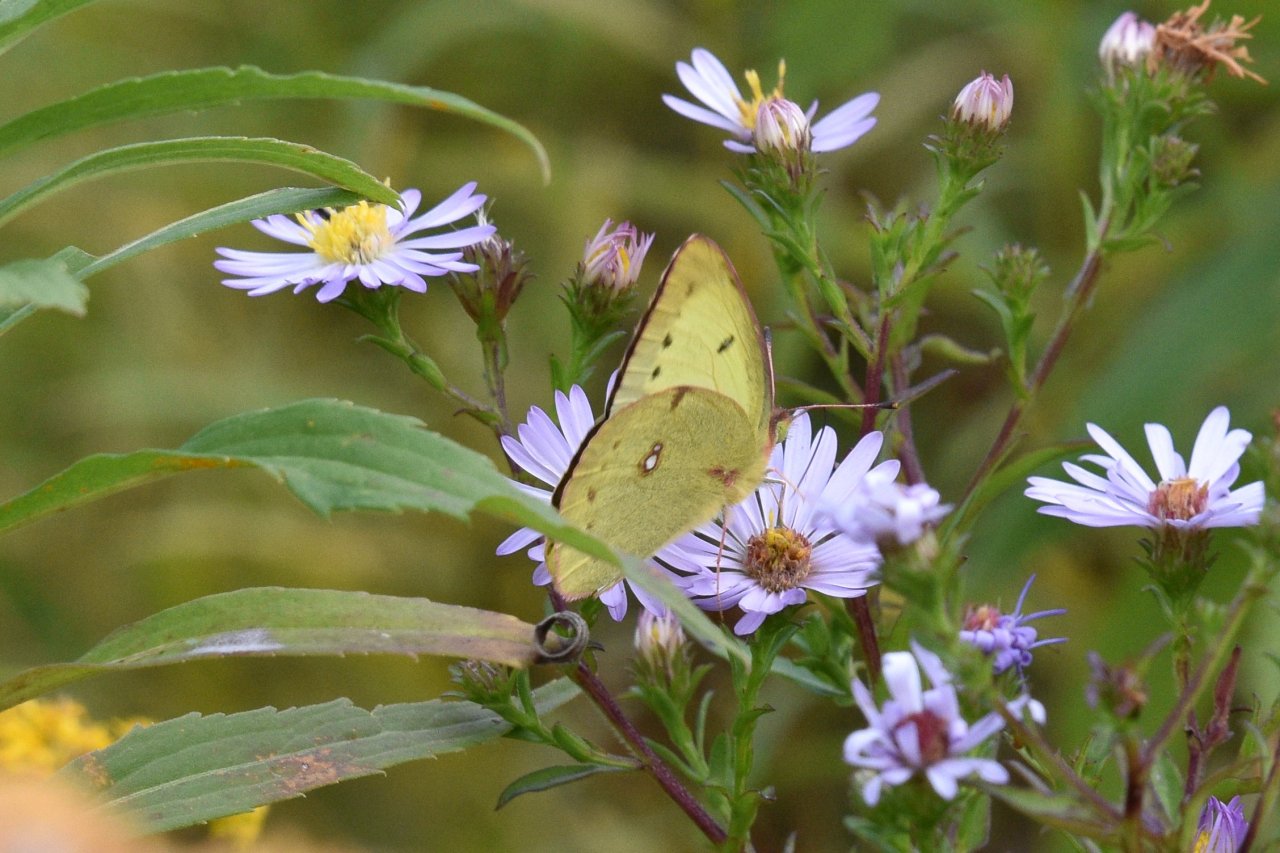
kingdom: Animalia
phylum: Arthropoda
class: Insecta
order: Lepidoptera
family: Pieridae
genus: Colias
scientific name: Colias philodice
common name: Clouded Sulphur
